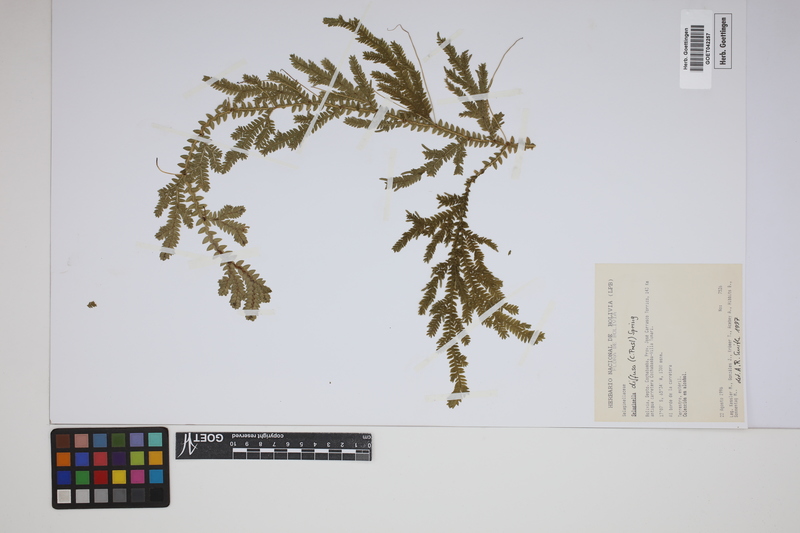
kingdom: Plantae
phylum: Tracheophyta
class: Lycopodiopsida
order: Selaginellales
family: Selaginellaceae
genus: Selaginella
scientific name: Selaginella diffusa
